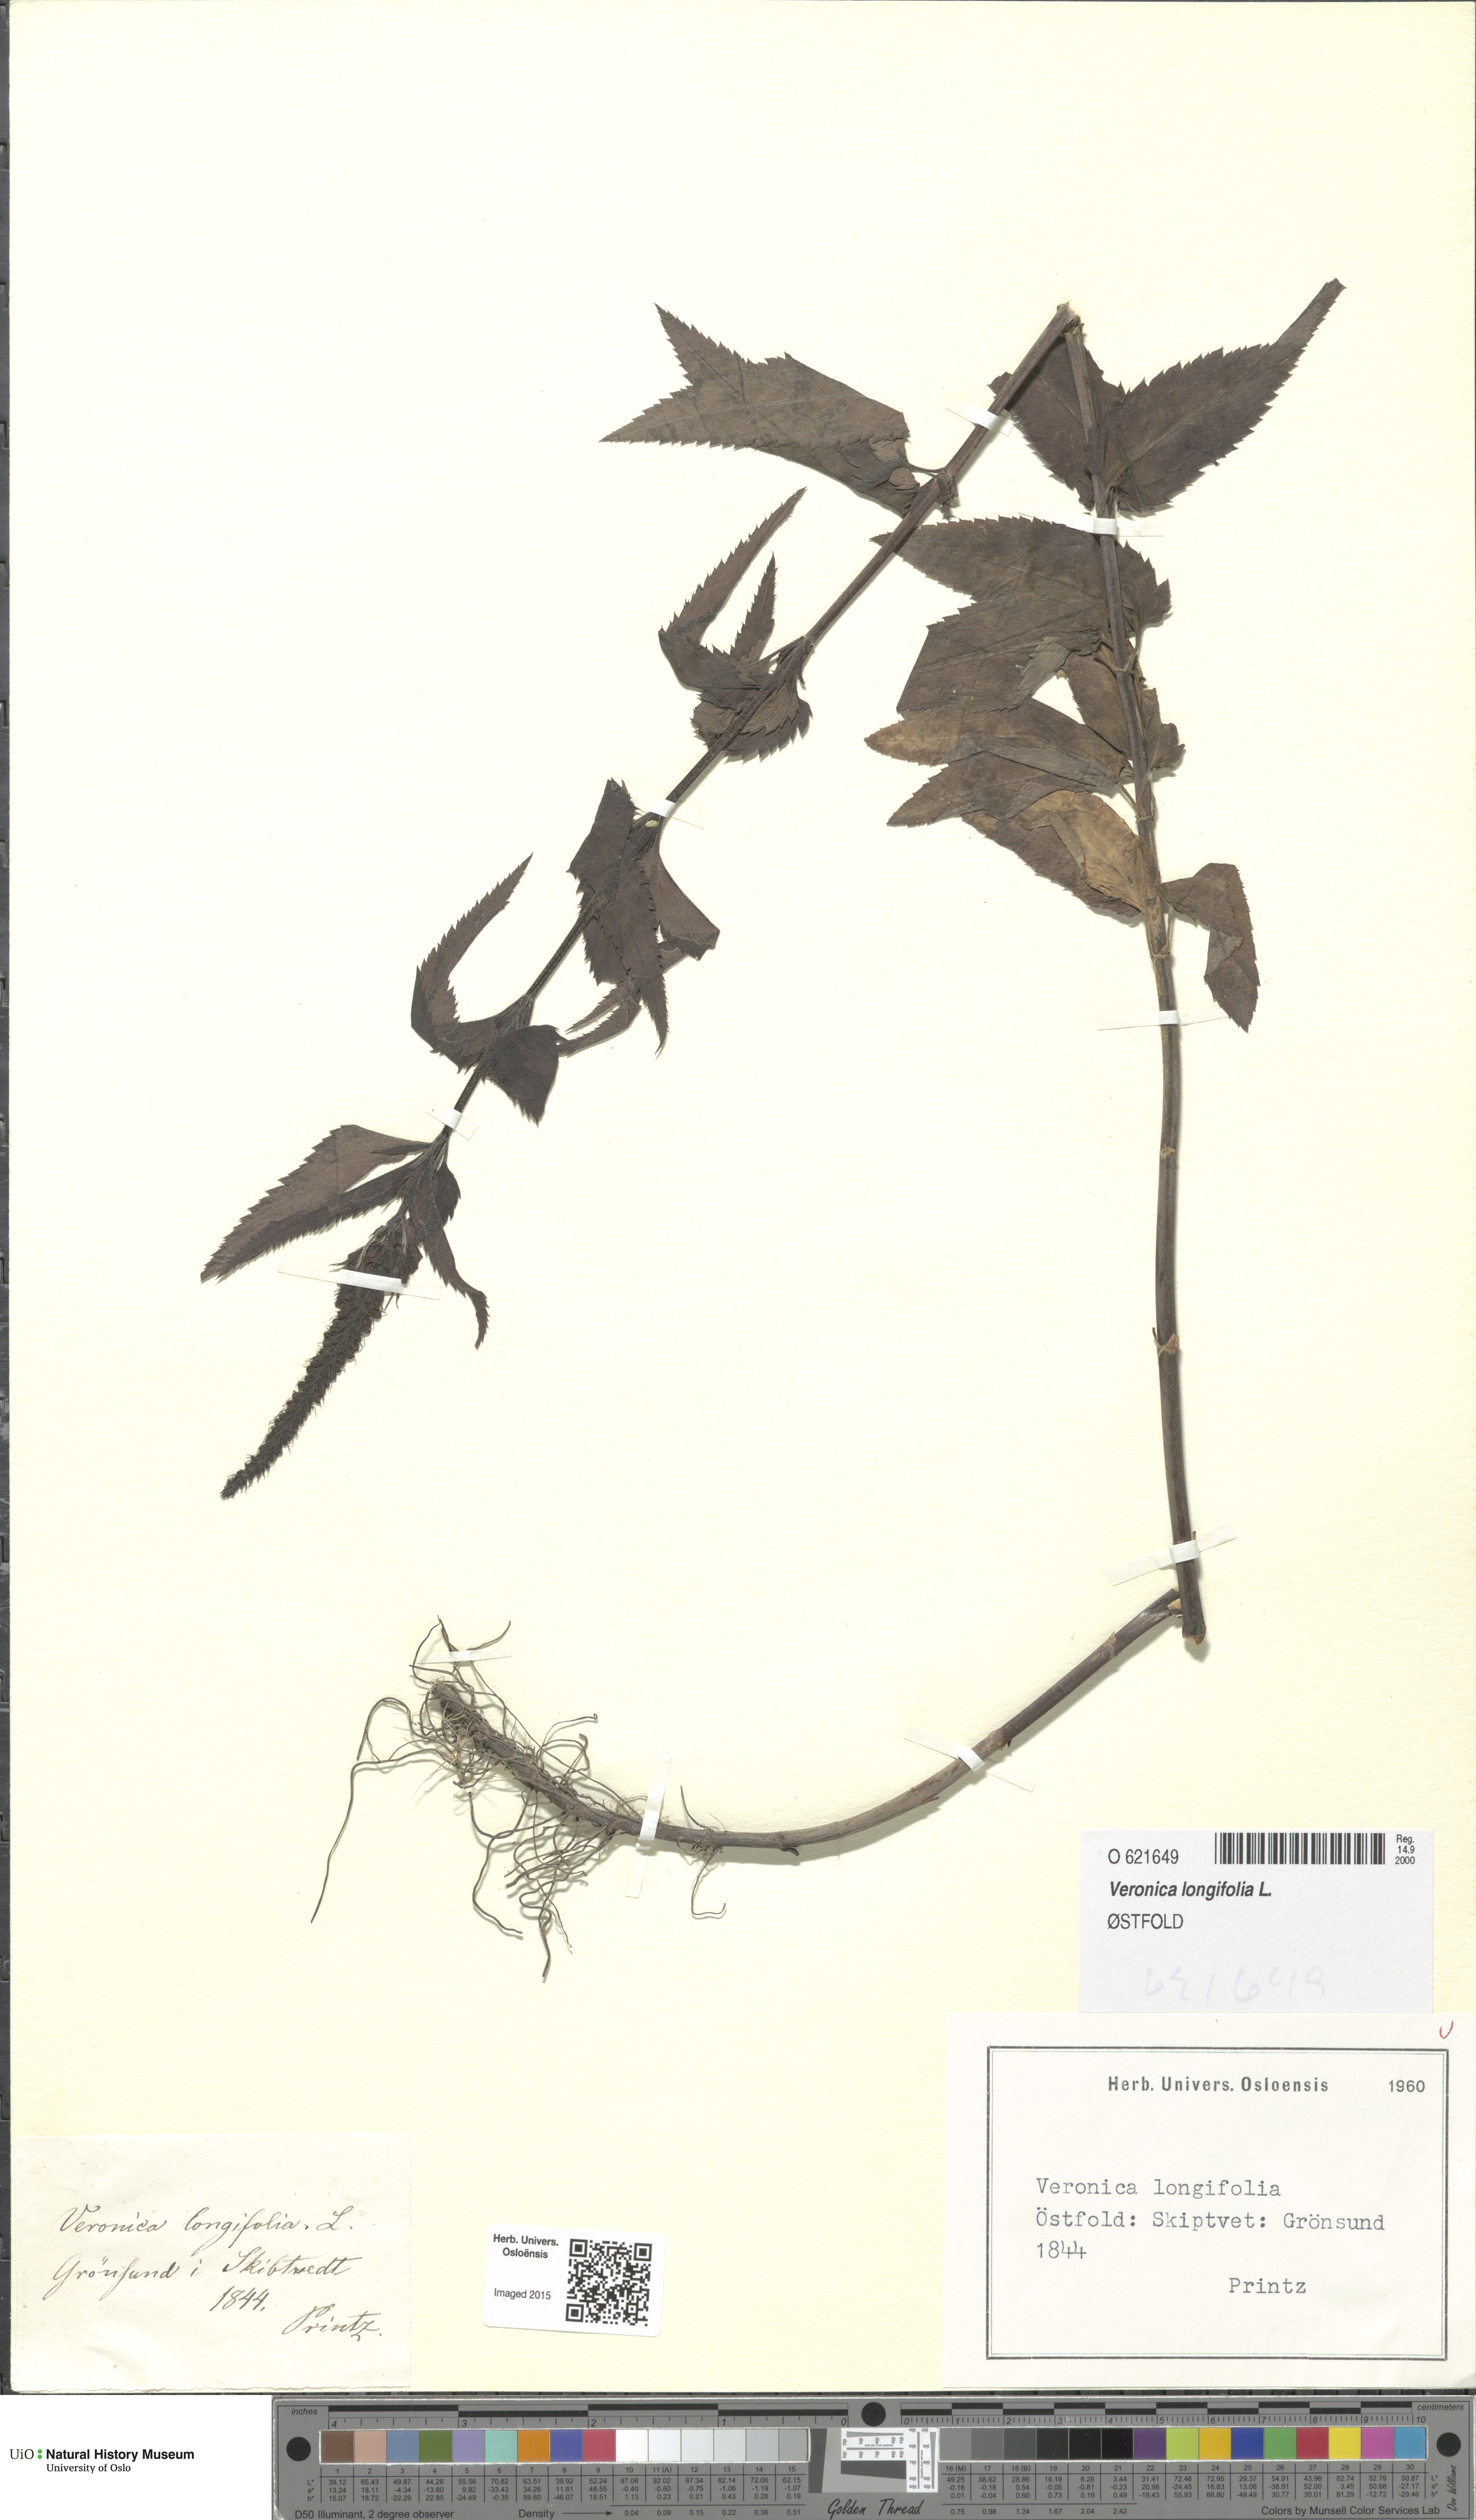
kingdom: Plantae
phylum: Tracheophyta
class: Magnoliopsida
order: Lamiales
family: Plantaginaceae
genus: Veronica
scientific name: Veronica longifolia
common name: Garden speedwell
